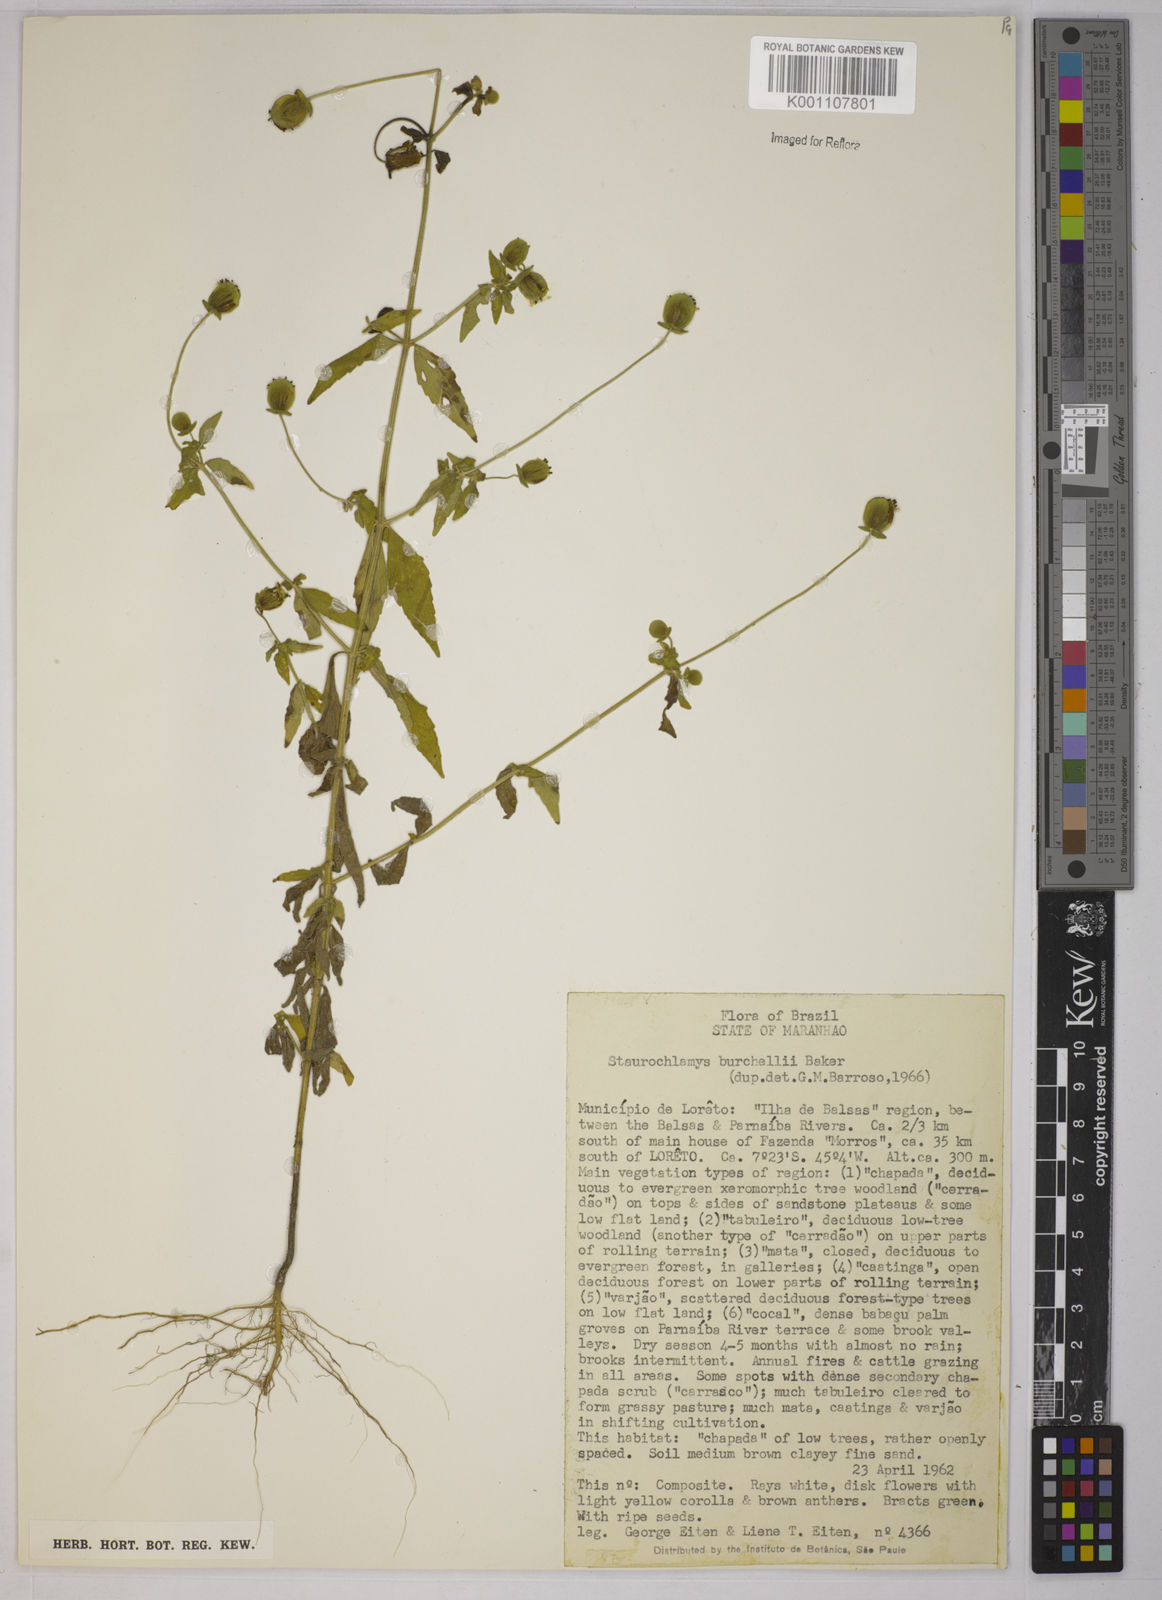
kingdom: Plantae
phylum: Tracheophyta
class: Magnoliopsida
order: Asterales
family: Asteraceae
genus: Staurochlamys
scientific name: Staurochlamys burchellii
